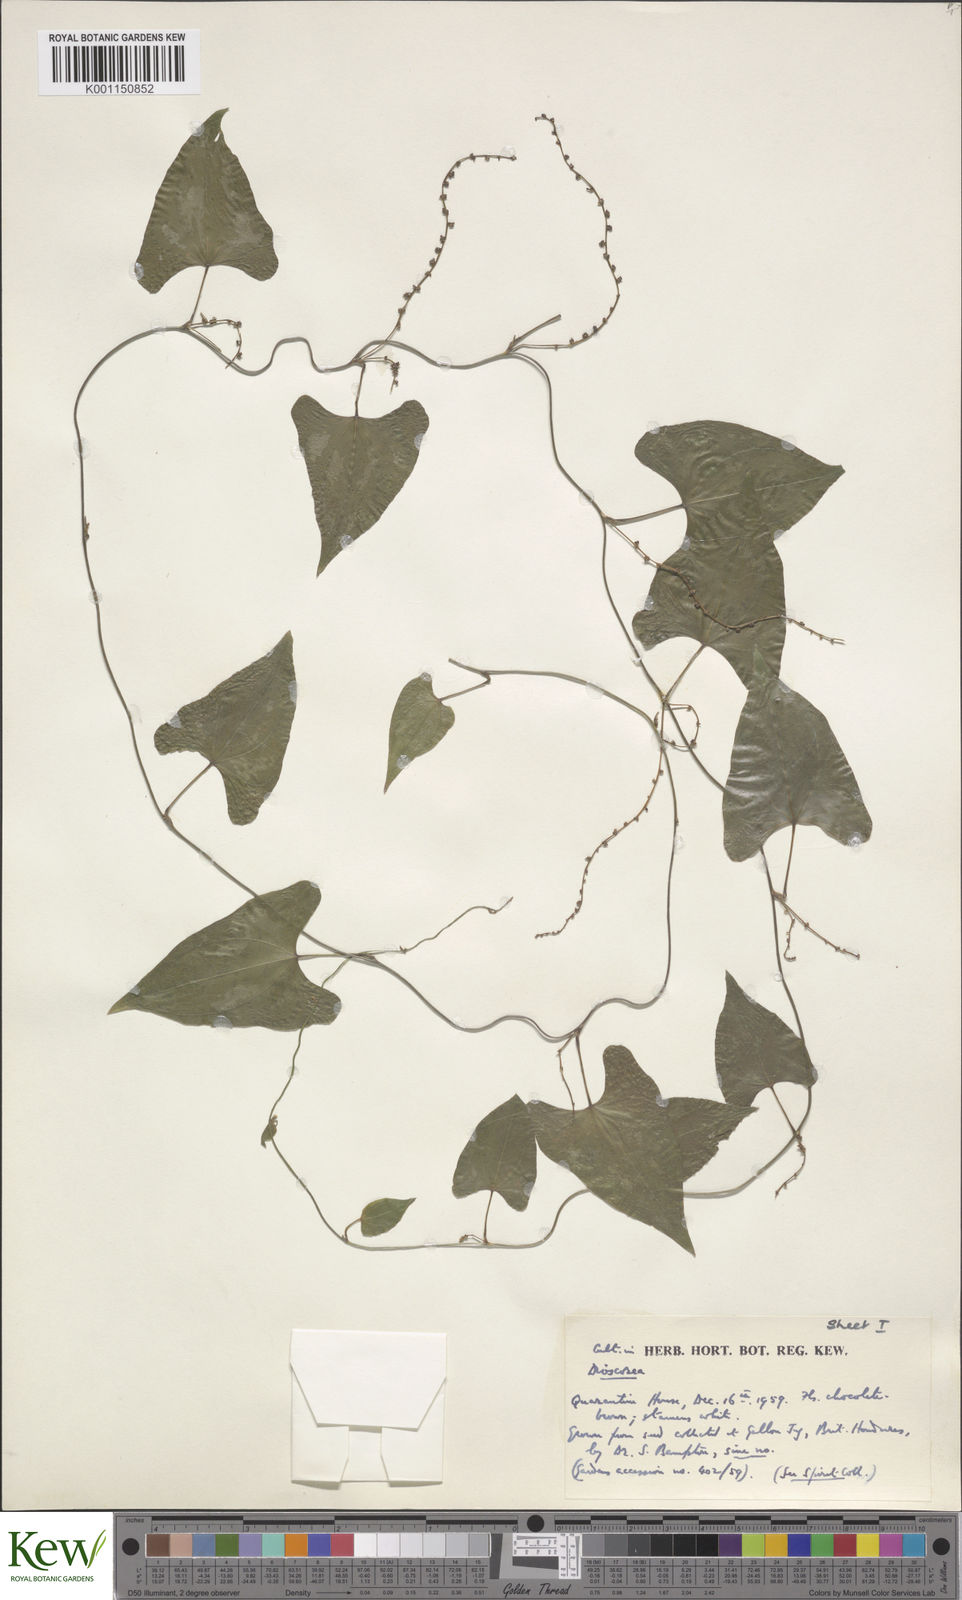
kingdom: Plantae
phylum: Tracheophyta
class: Liliopsida
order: Dioscoreales
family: Dioscoreaceae
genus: Dioscorea
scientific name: Dioscorea
